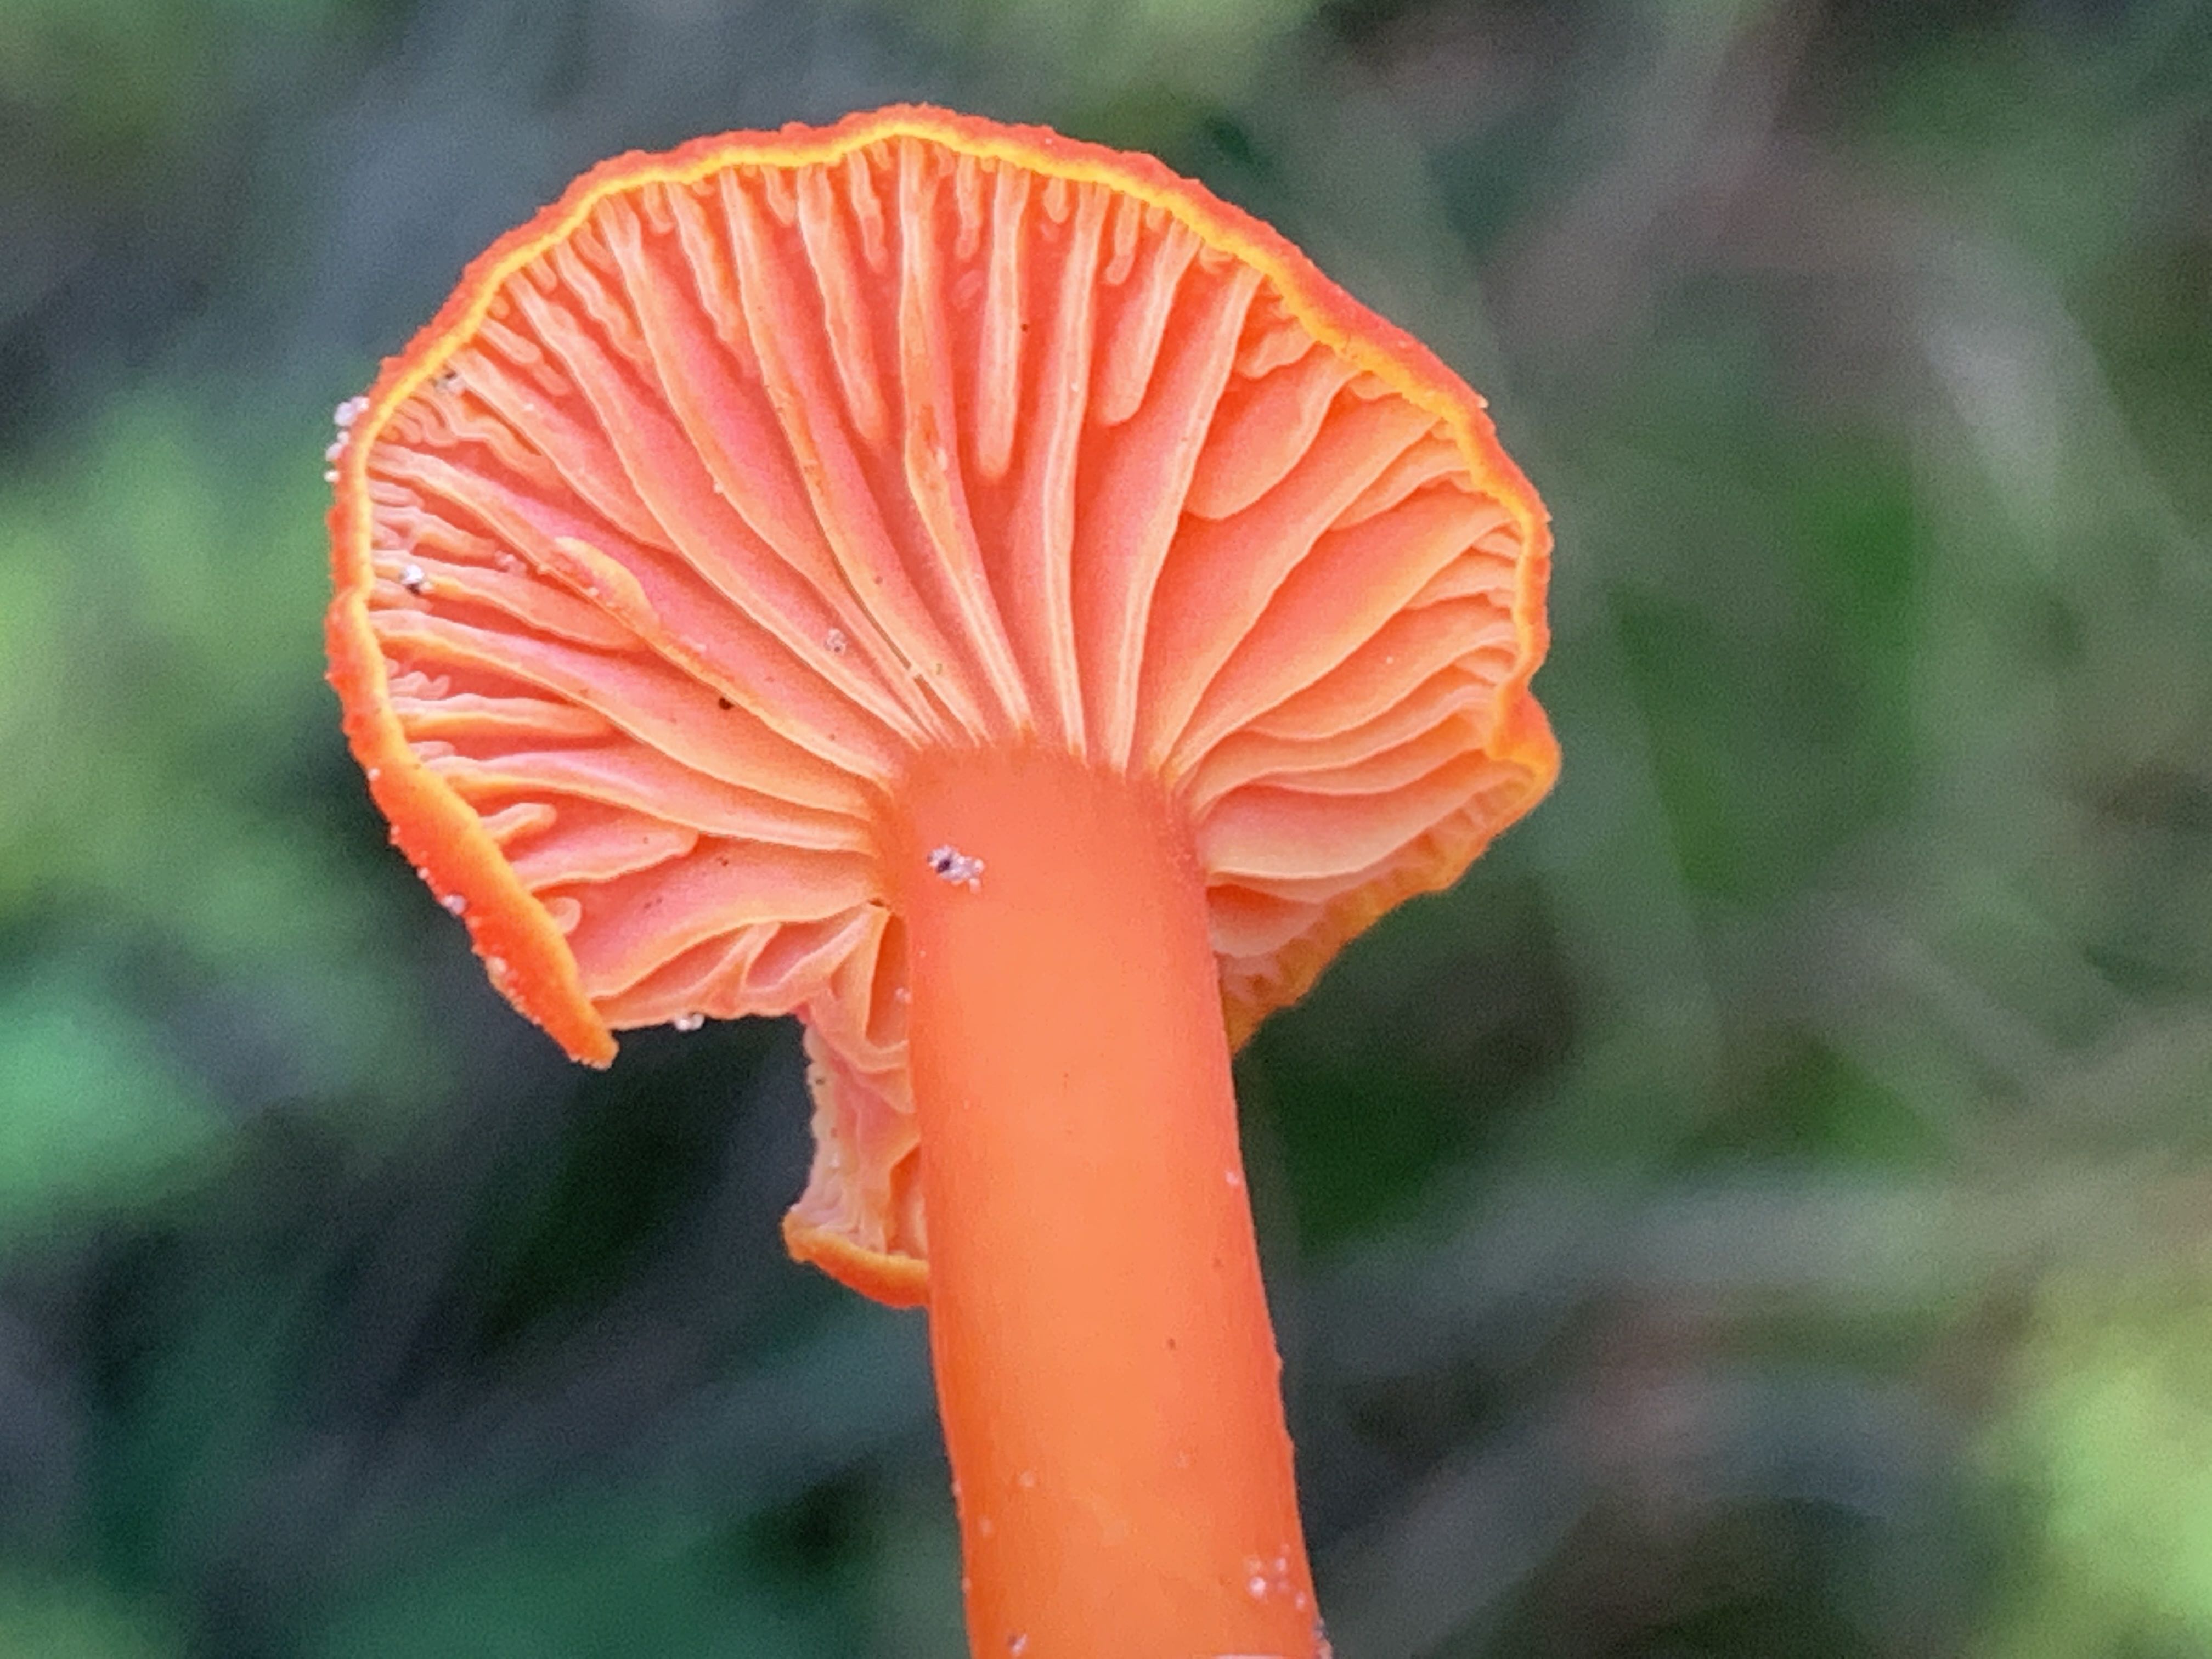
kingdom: Fungi
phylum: Basidiomycota
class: Agaricomycetes
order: Agaricales
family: Hygrophoraceae
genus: Hygrocybe
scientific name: Hygrocybe miniata
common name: mønje-vokshat
